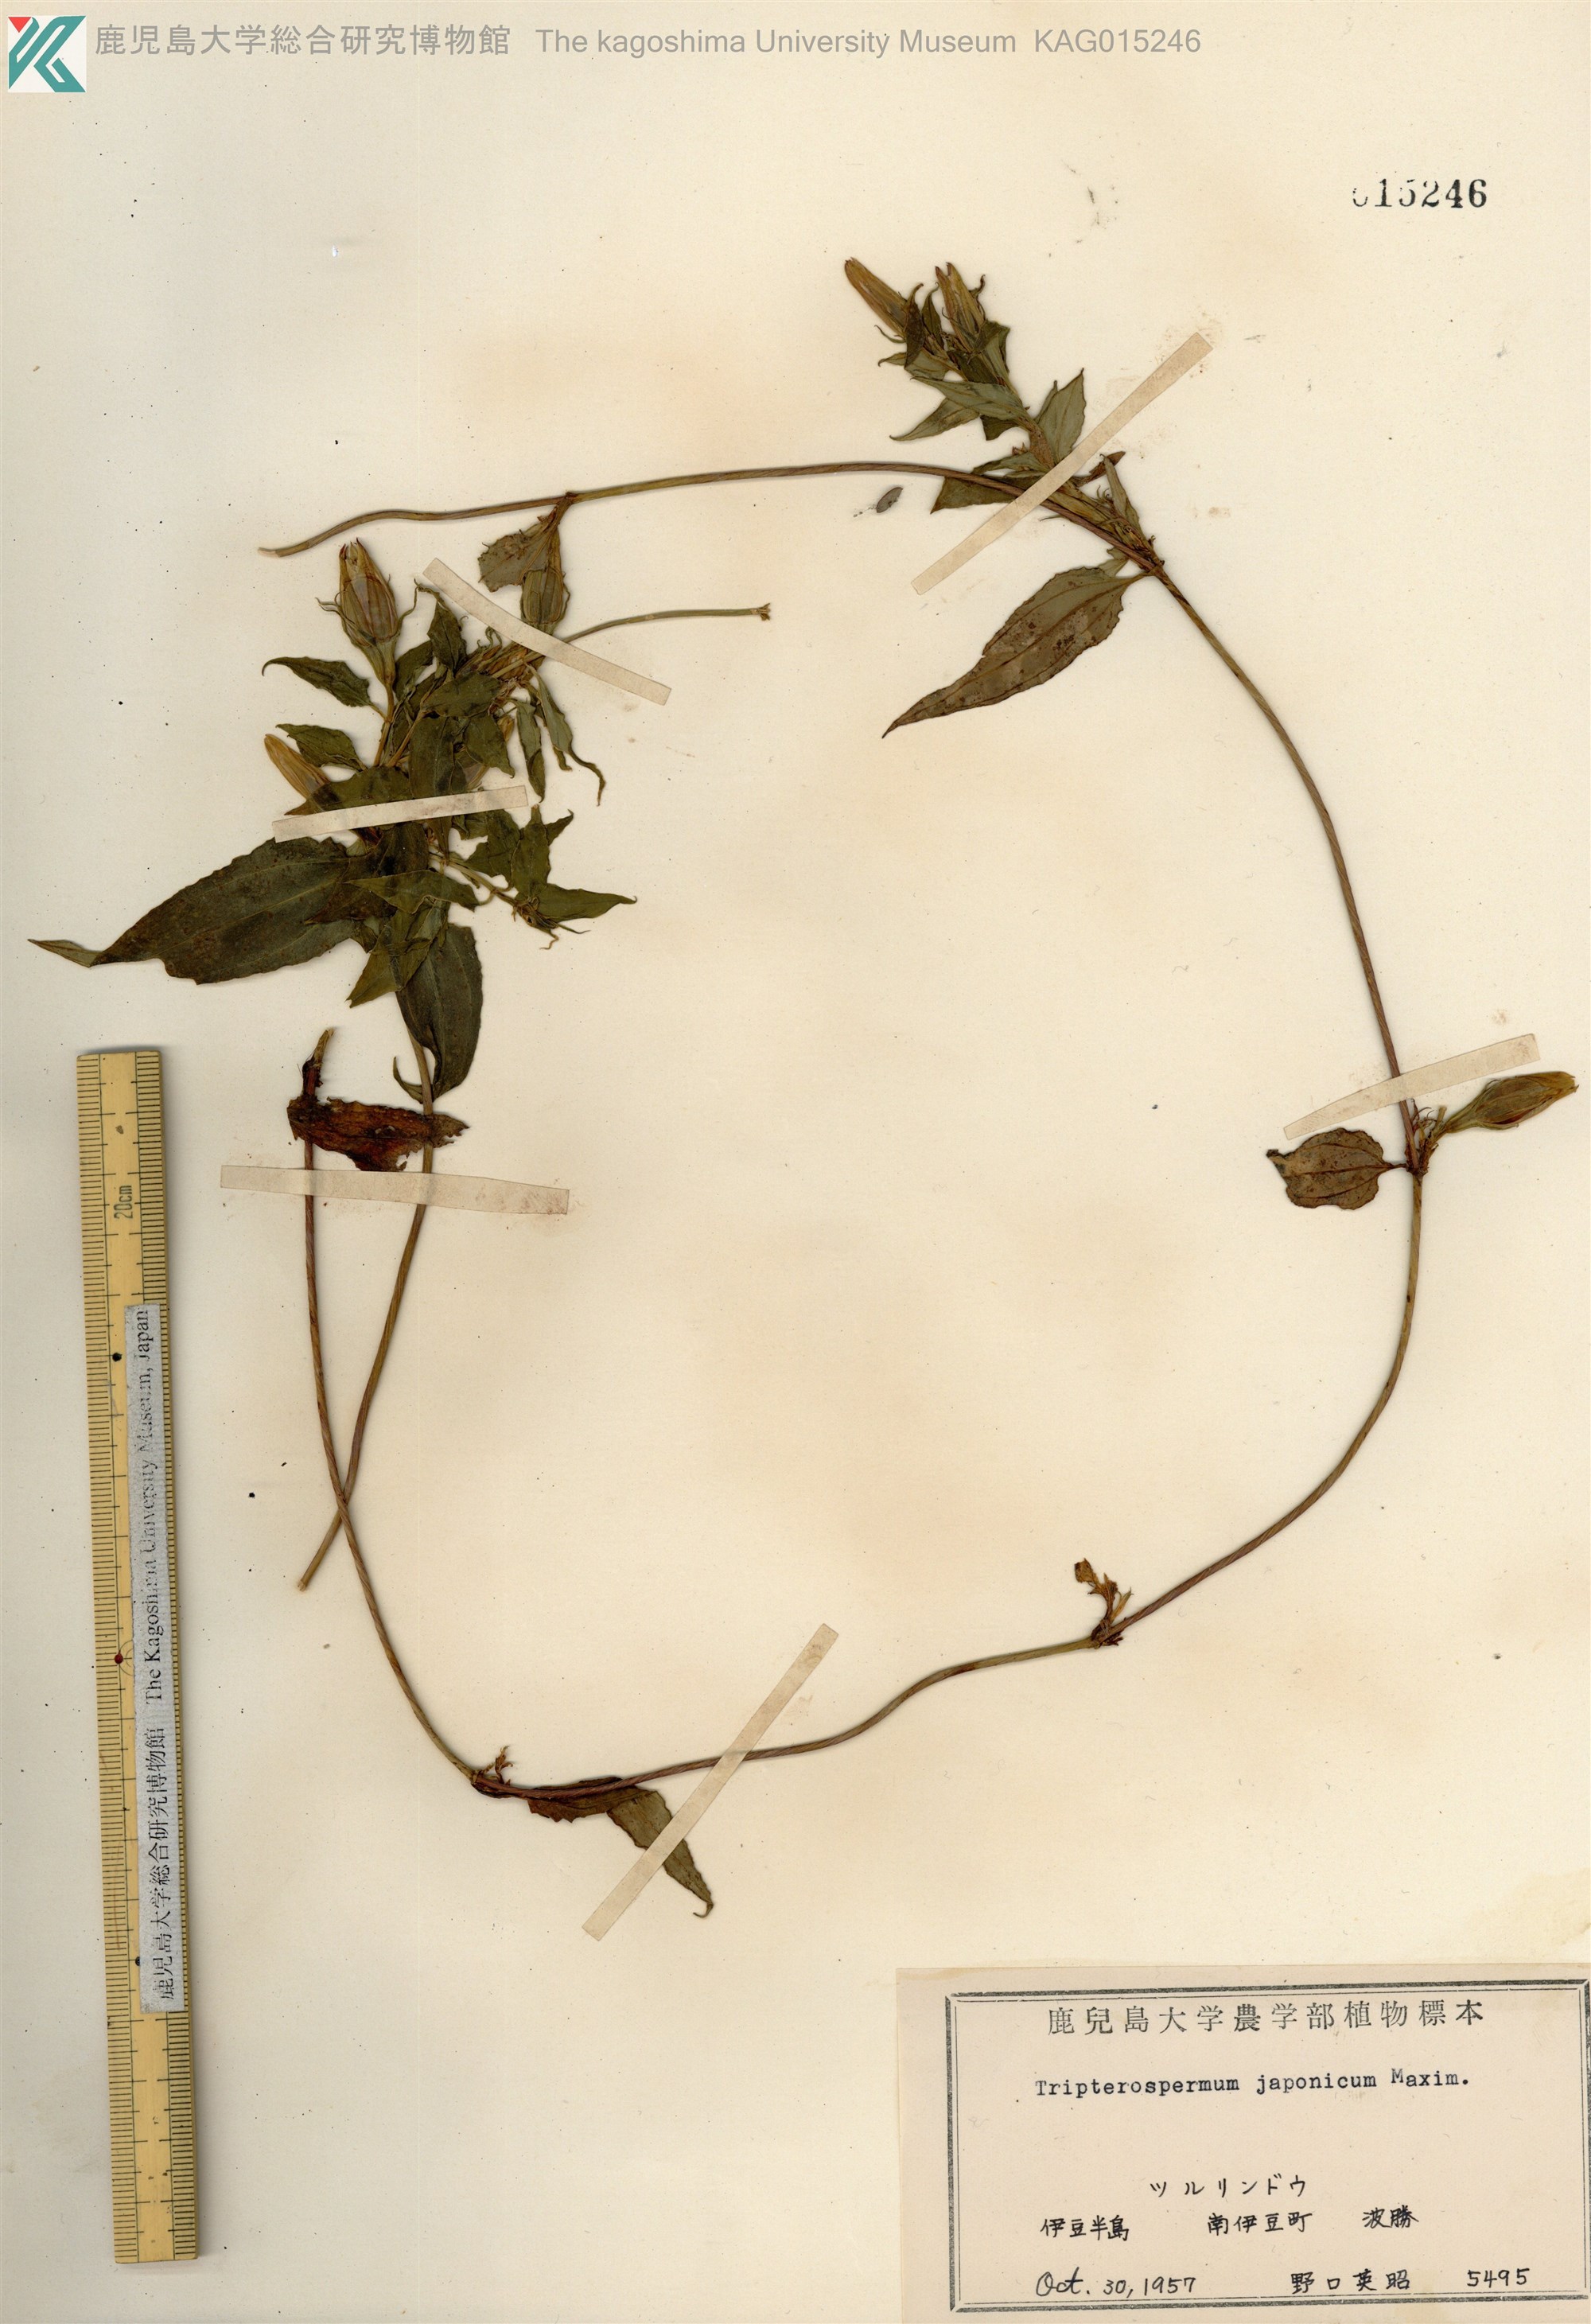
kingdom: Plantae
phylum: Tracheophyta
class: Magnoliopsida
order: Gentianales
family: Gentianaceae
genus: Tripterospermum
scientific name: Tripterospermum trinervium
